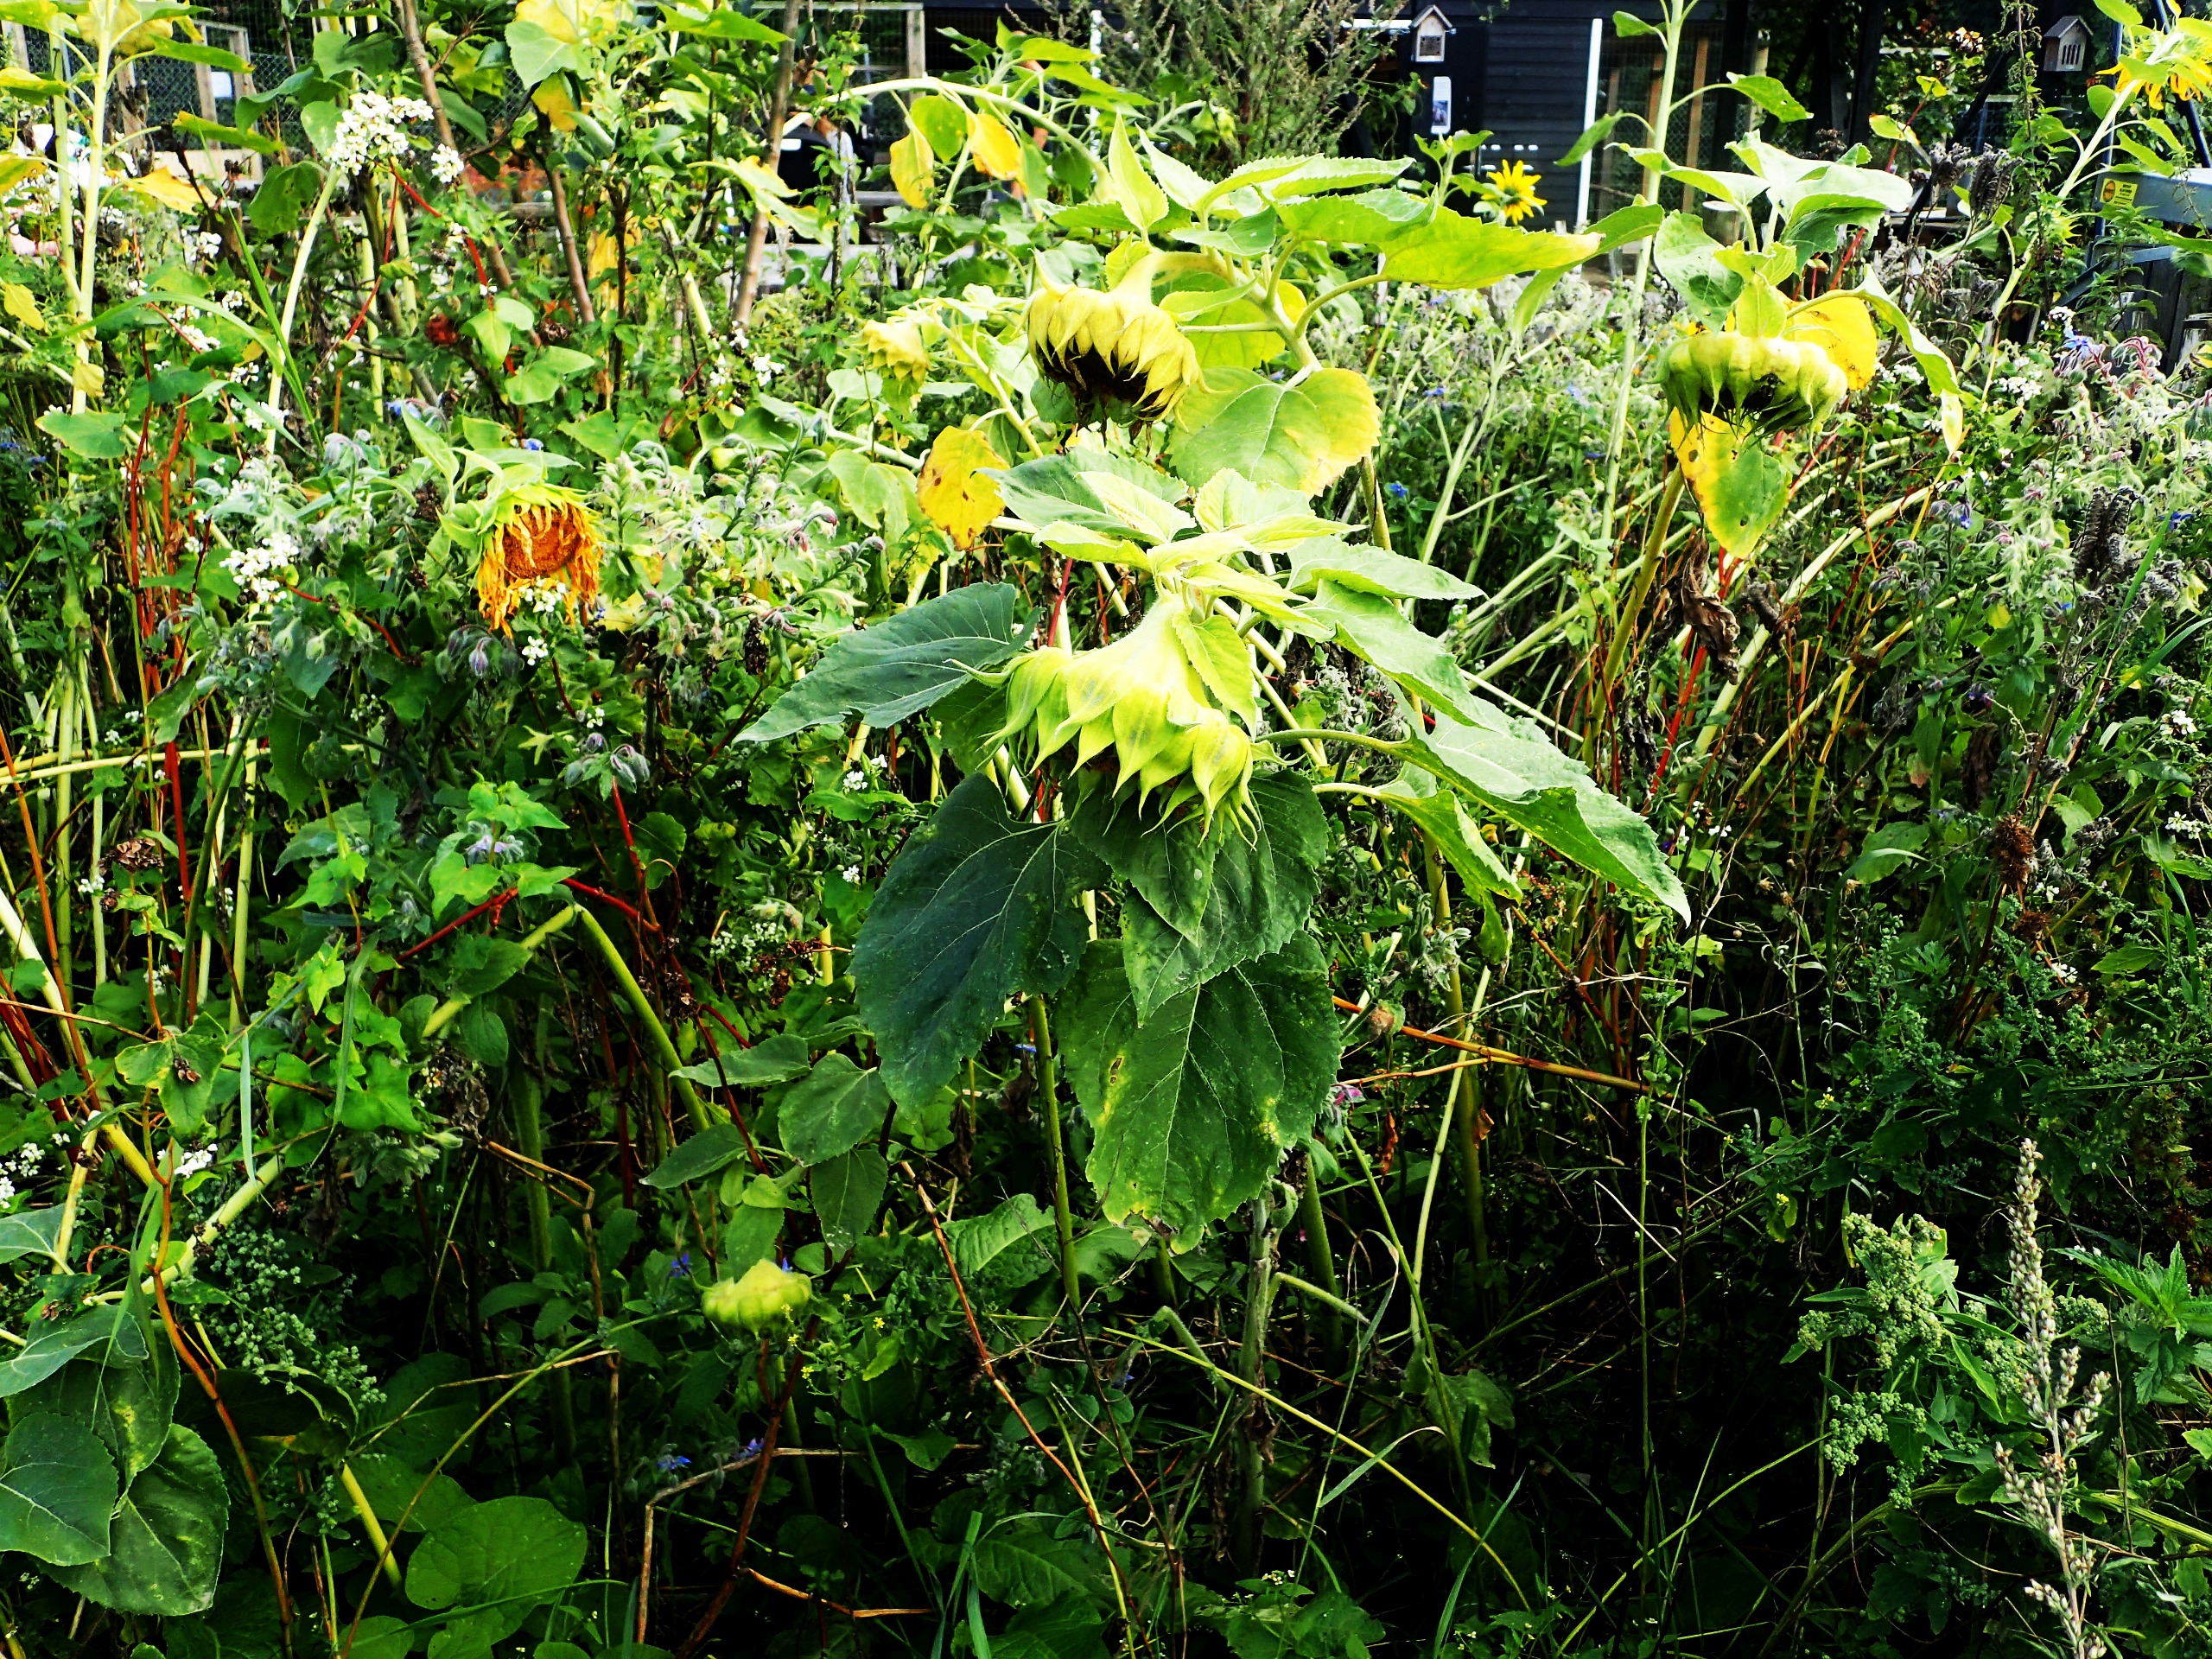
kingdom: Plantae
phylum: Tracheophyta
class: Magnoliopsida
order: Asterales
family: Asteraceae
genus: Helianthus
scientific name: Helianthus annuus
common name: Solsikke
